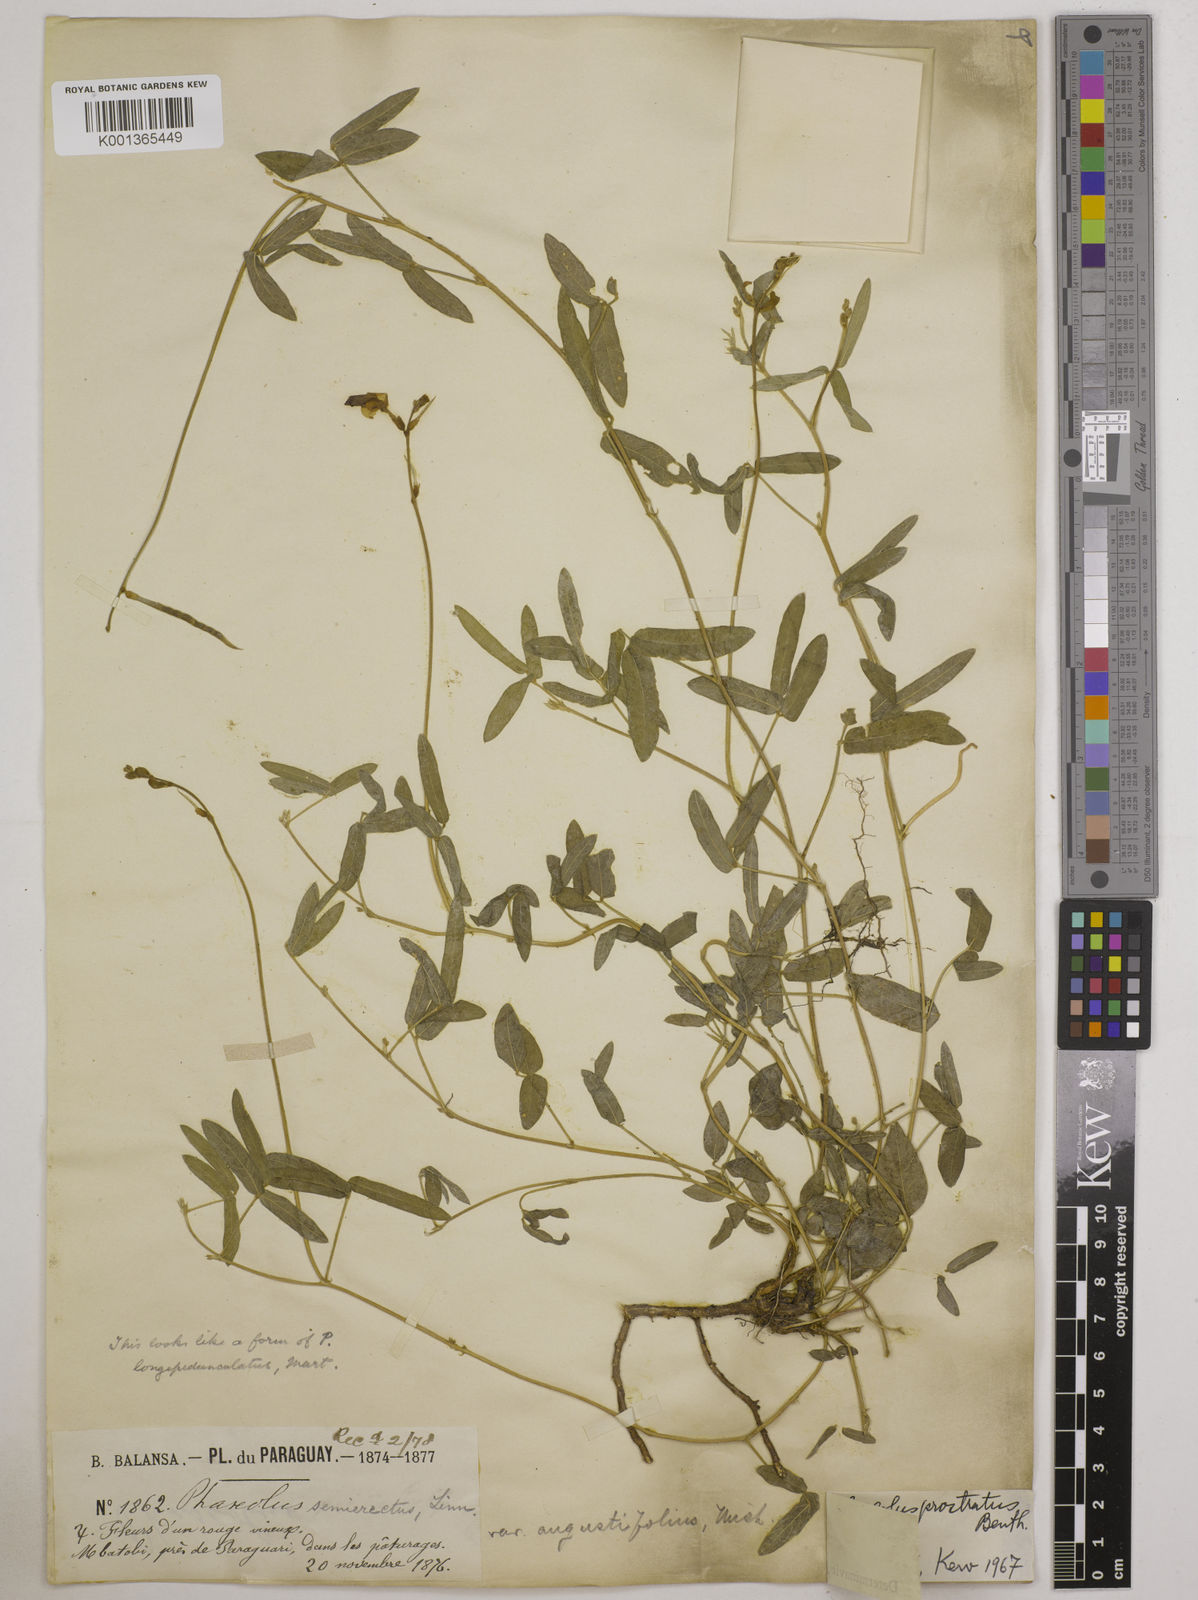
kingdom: Plantae
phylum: Tracheophyta
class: Magnoliopsida
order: Fabales
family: Fabaceae
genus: Macroptilium
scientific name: Macroptilium prostratum
